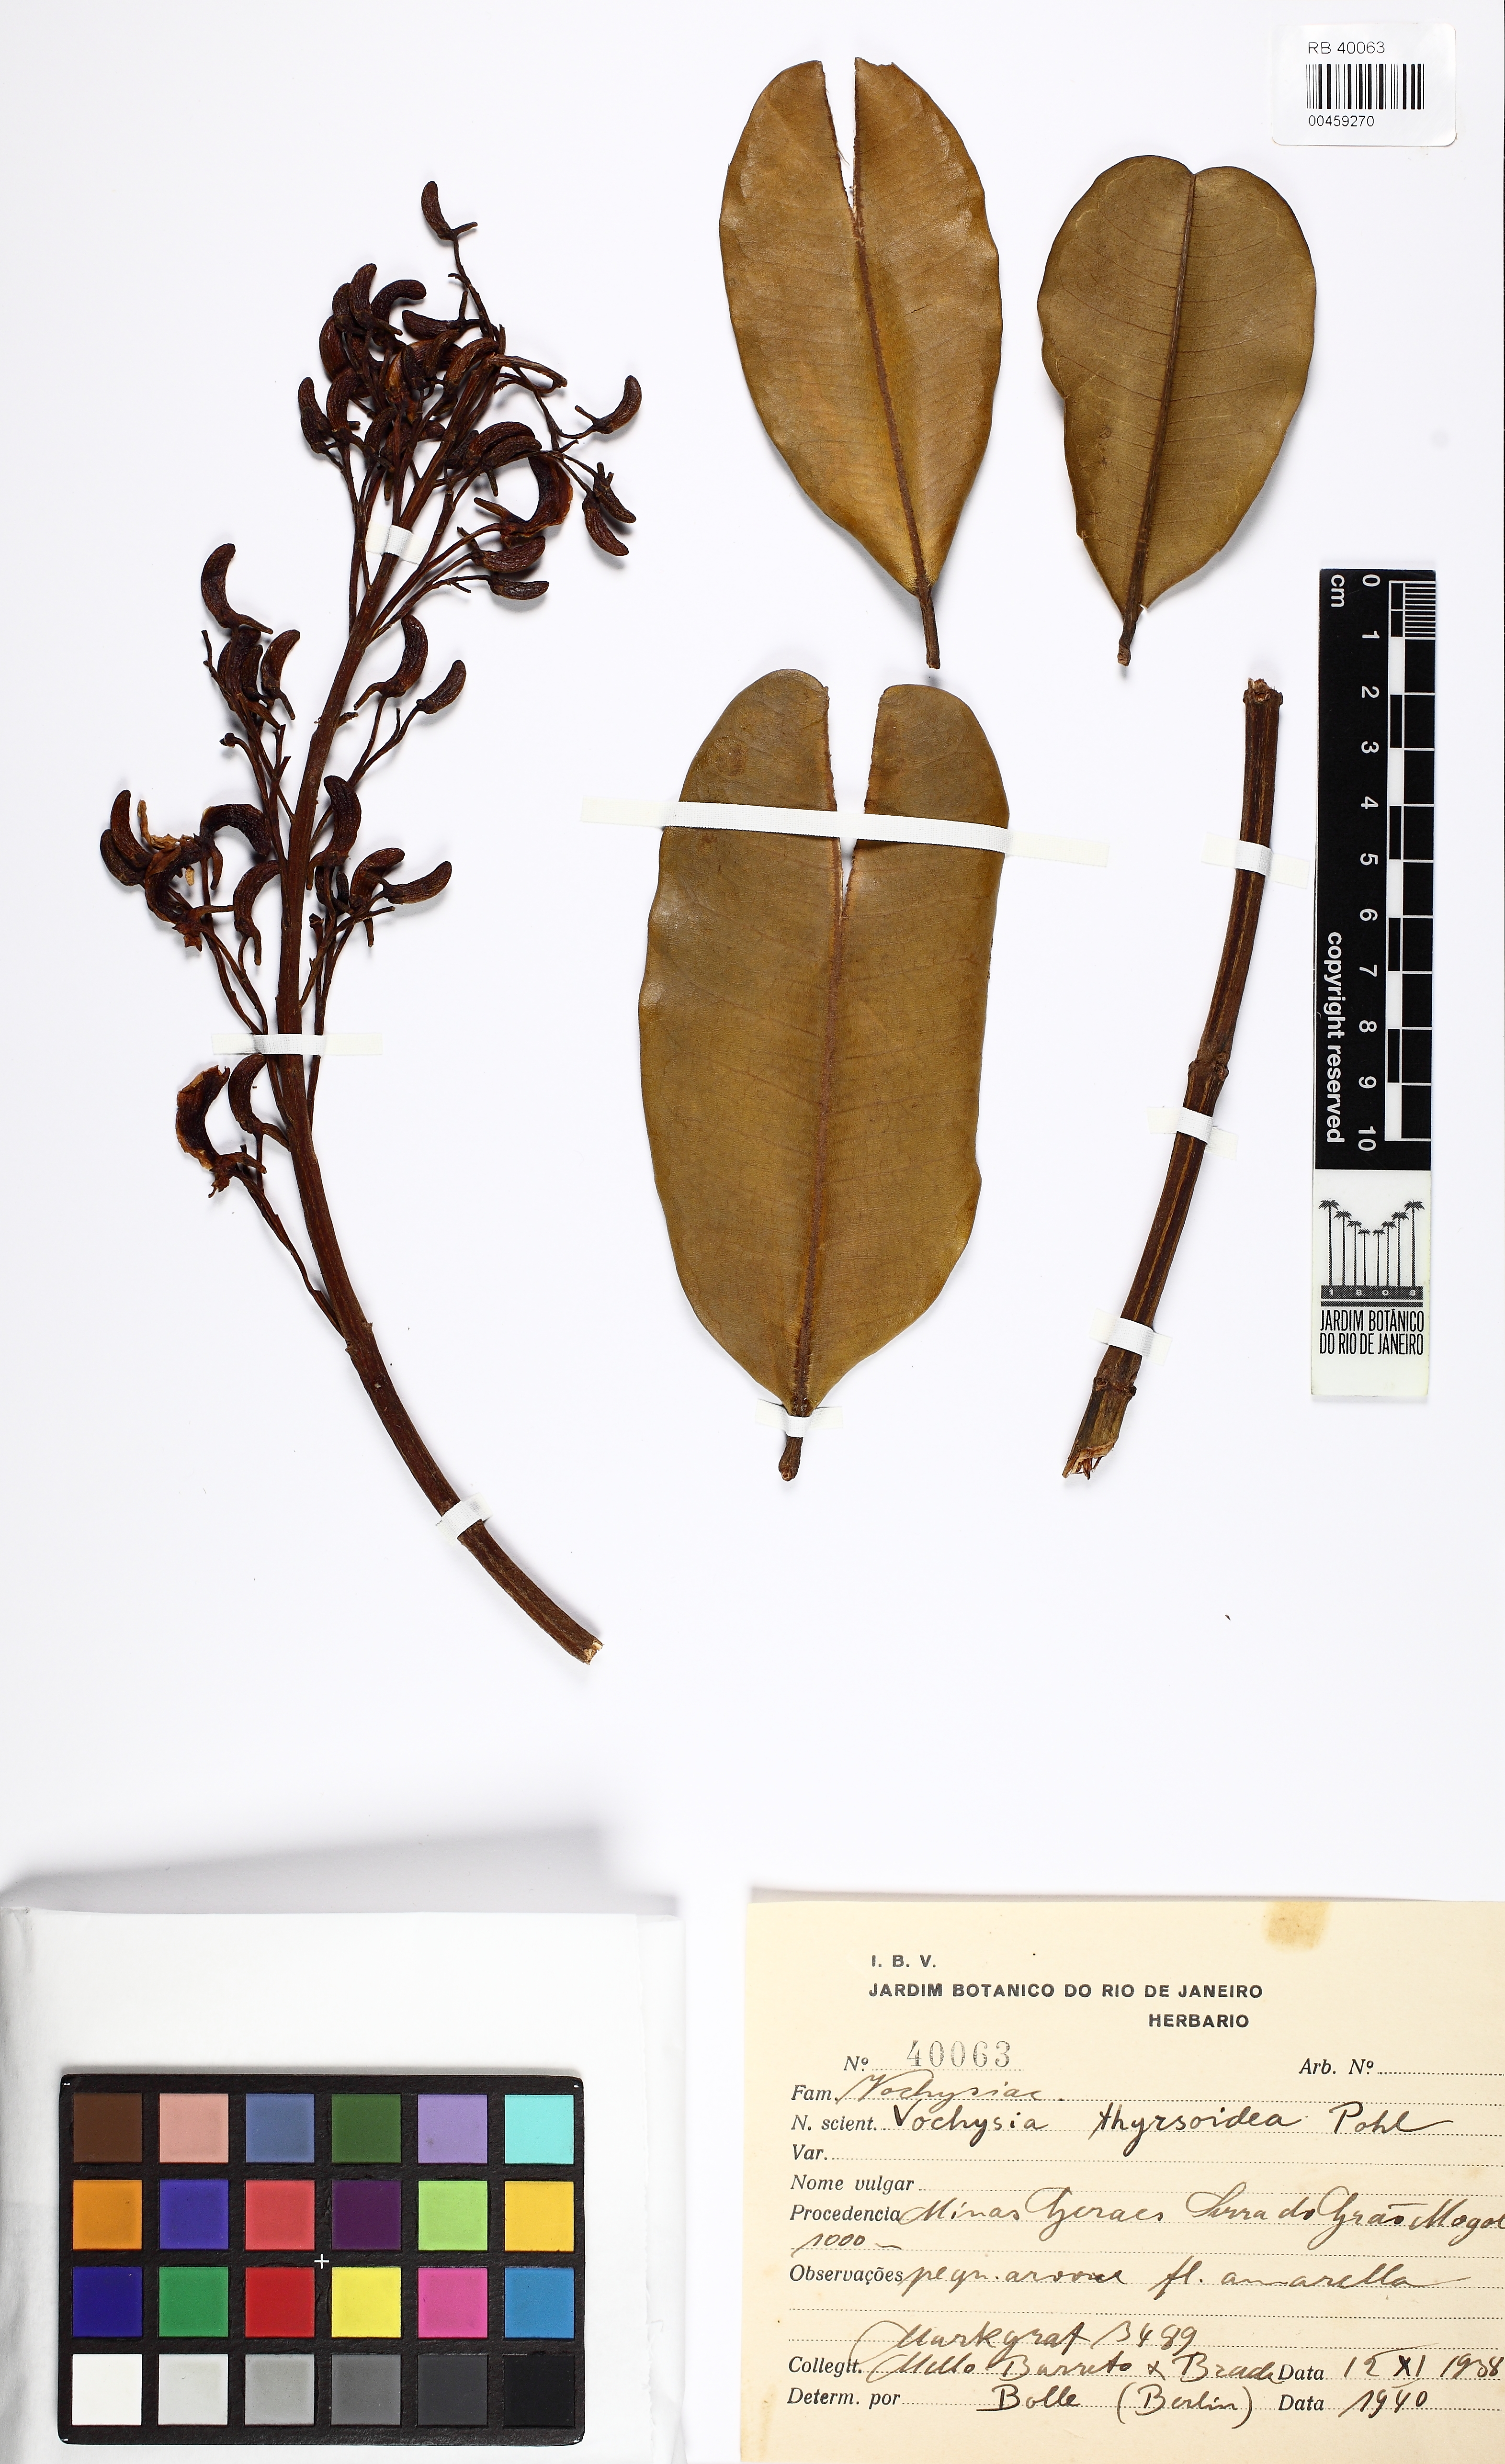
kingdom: Plantae
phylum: Tracheophyta
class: Magnoliopsida
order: Myrtales
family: Vochysiaceae
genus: Vochysia
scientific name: Vochysia thyrsoidea
